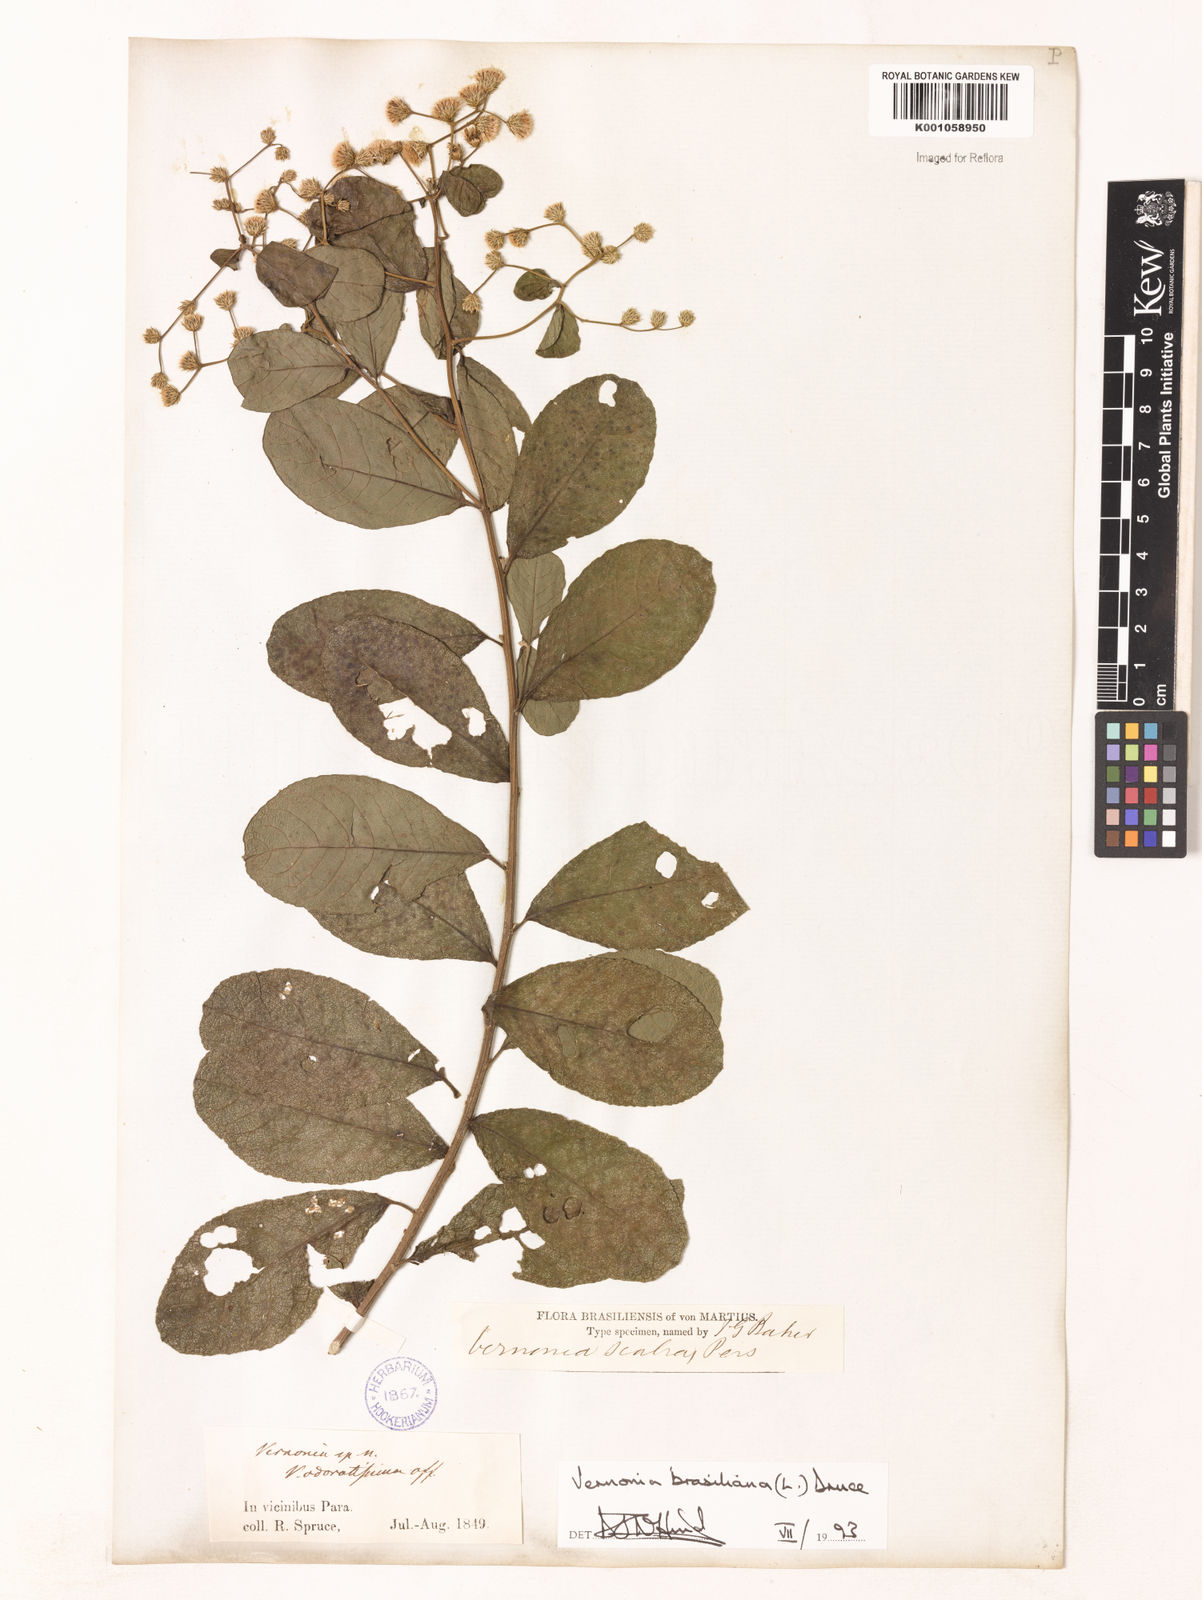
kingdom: Plantae
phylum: Tracheophyta
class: Magnoliopsida
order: Asterales
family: Asteraceae
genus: Vernonanthura
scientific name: Vernonanthura brasiliana
